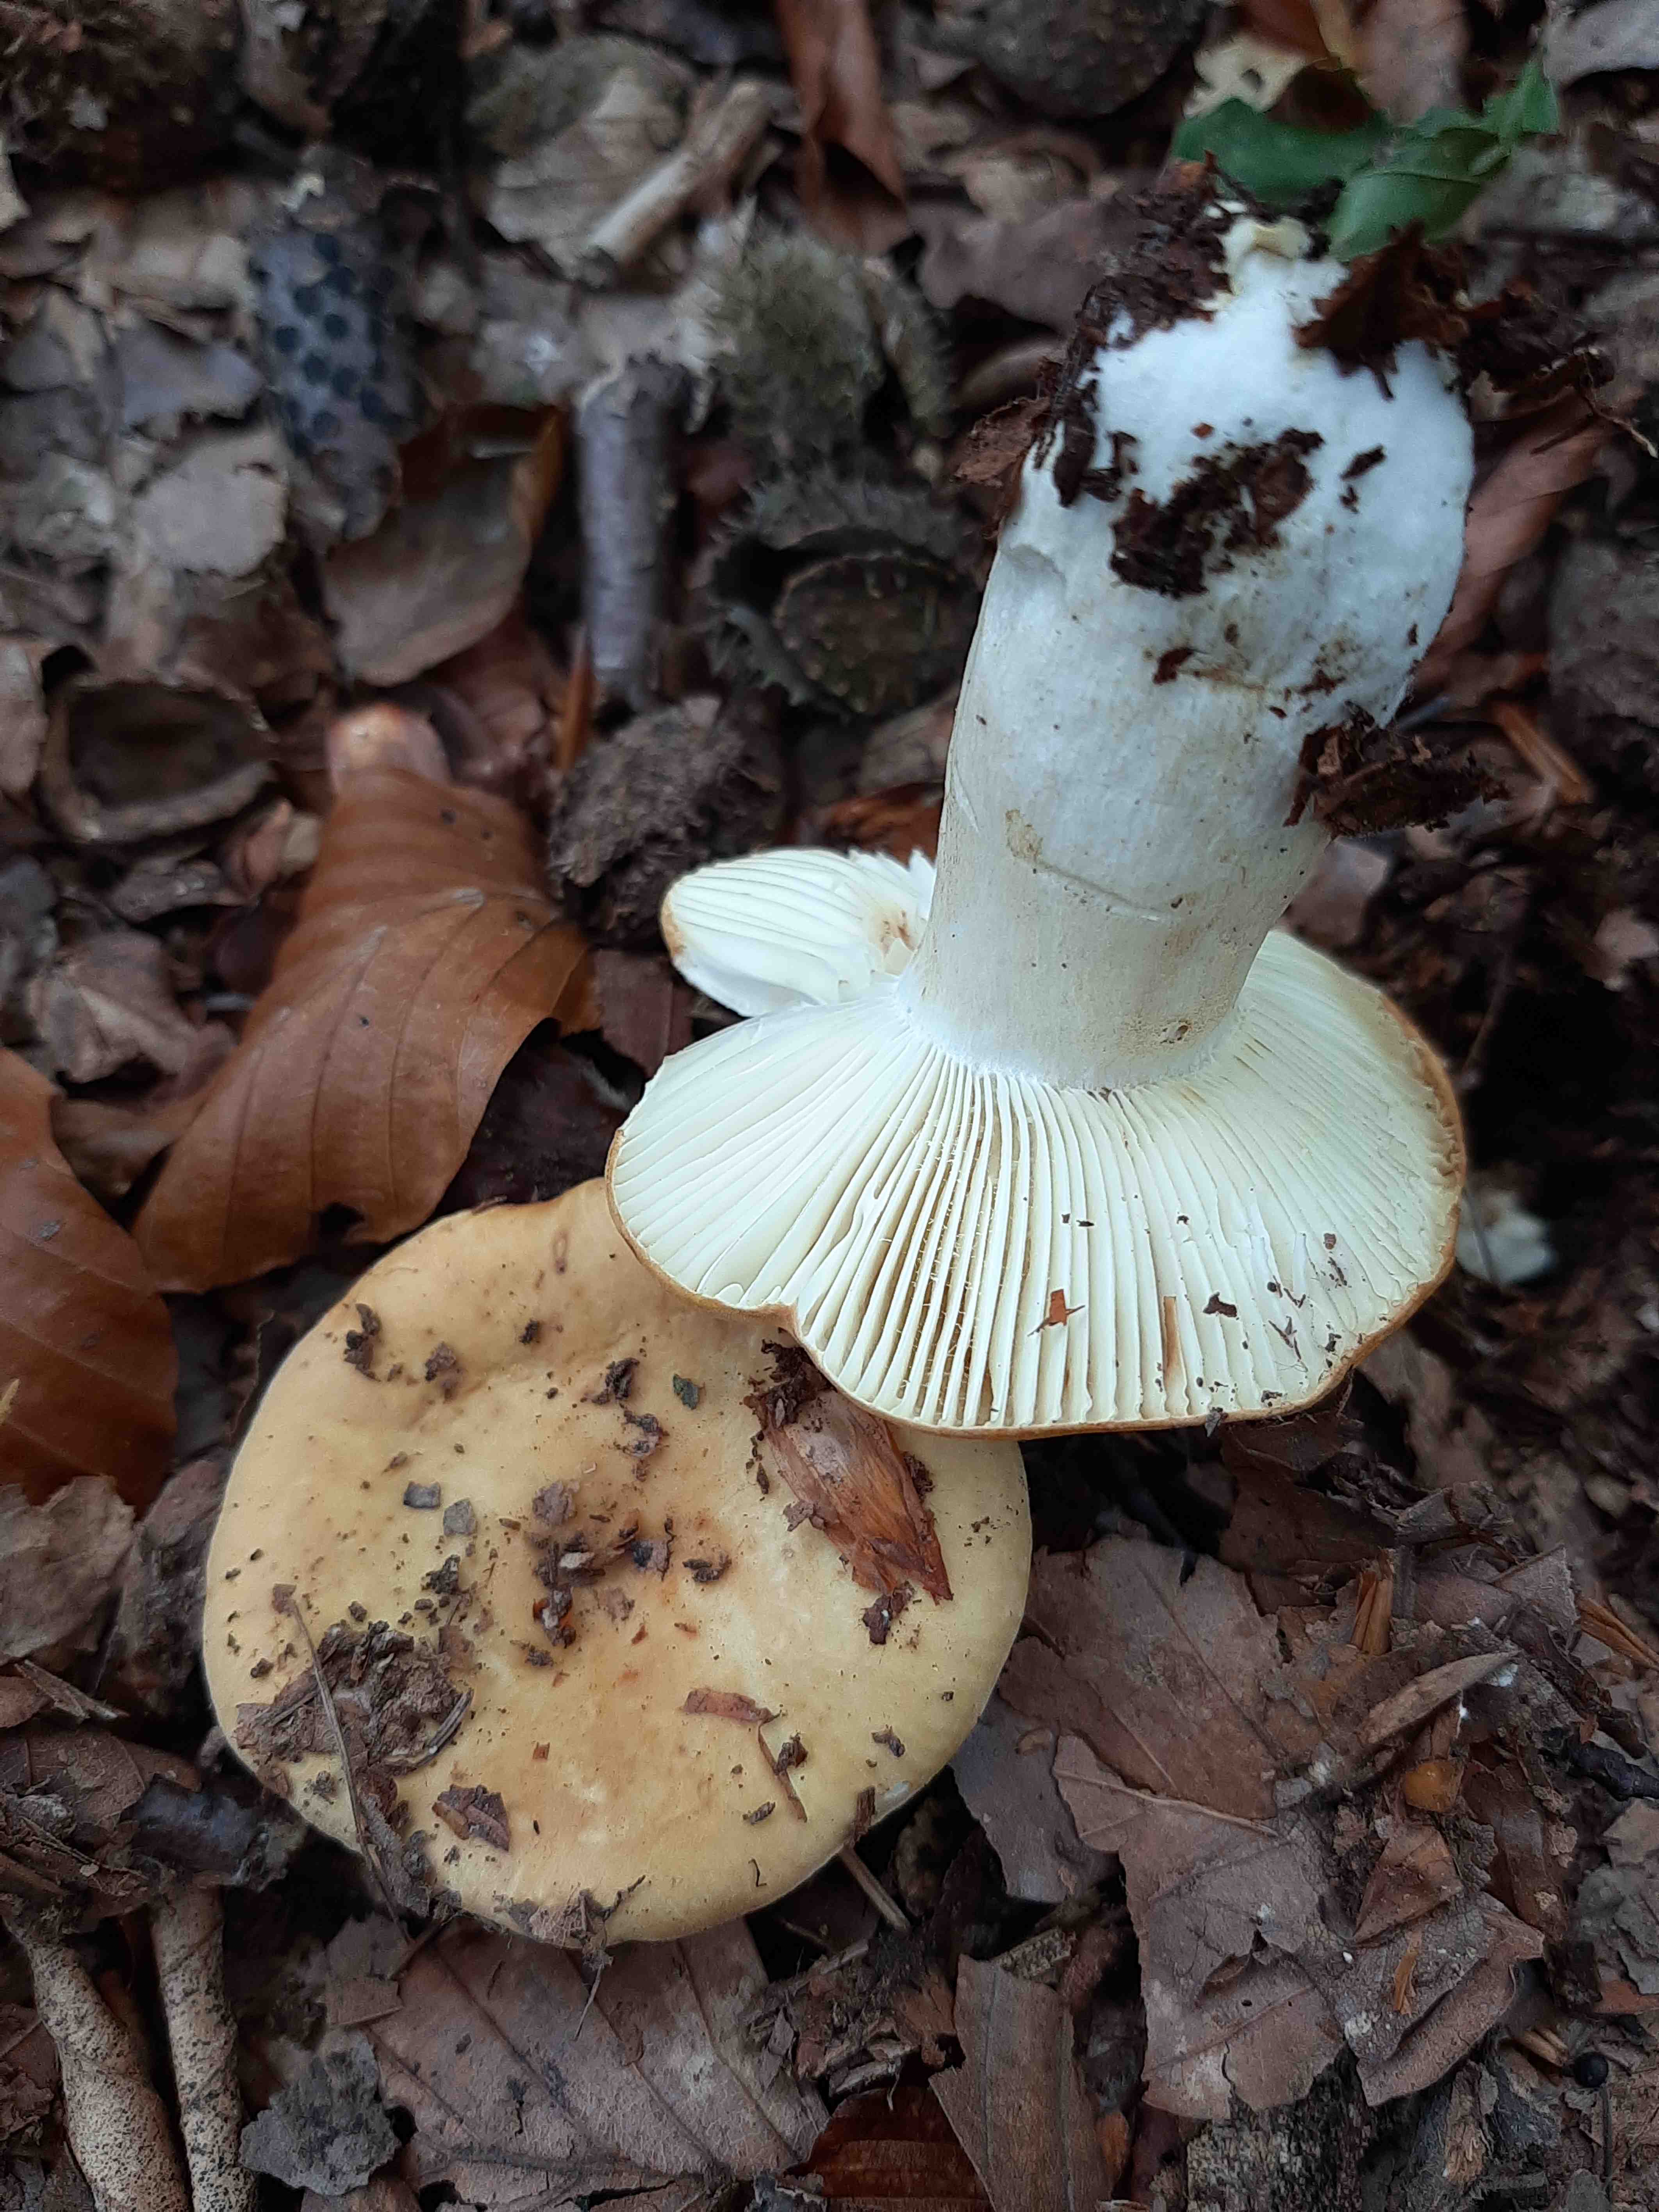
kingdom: Fungi
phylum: Basidiomycota
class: Agaricomycetes
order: Russulales
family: Russulaceae
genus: Russula
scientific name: Russula ochroleuca
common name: okkergul skørhat
